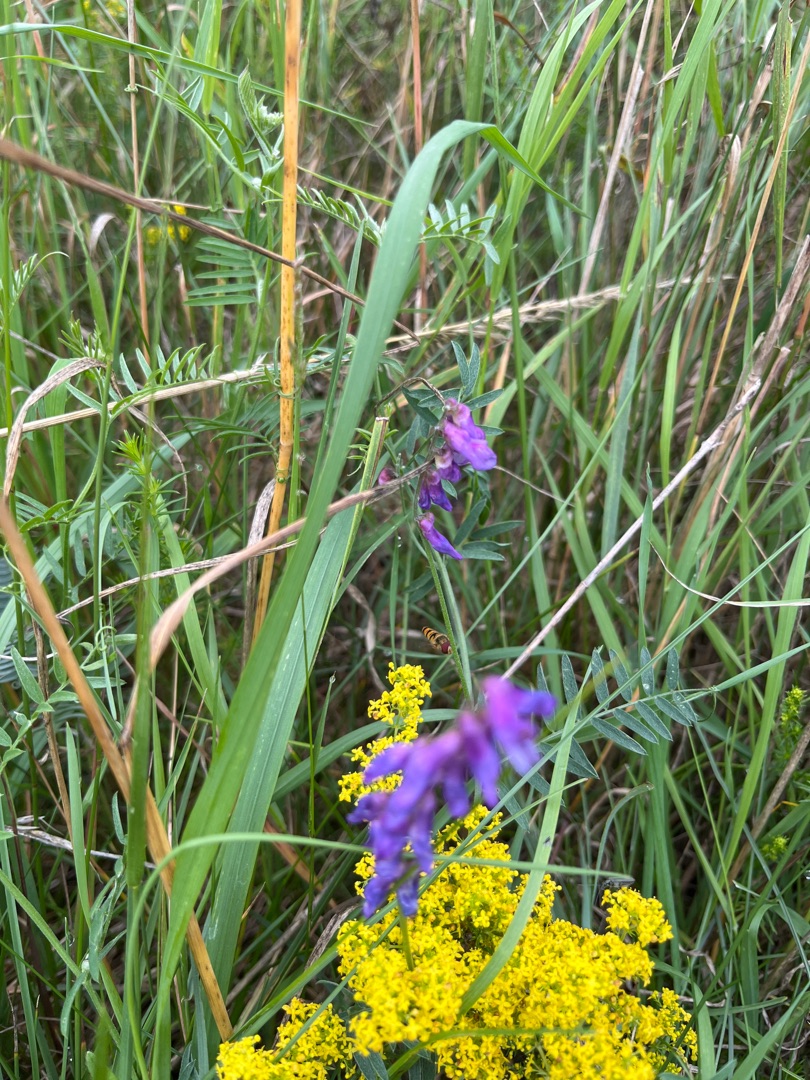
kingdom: Plantae
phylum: Tracheophyta
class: Magnoliopsida
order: Fabales
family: Fabaceae
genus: Vicia
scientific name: Vicia cracca
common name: Muse-vikke
